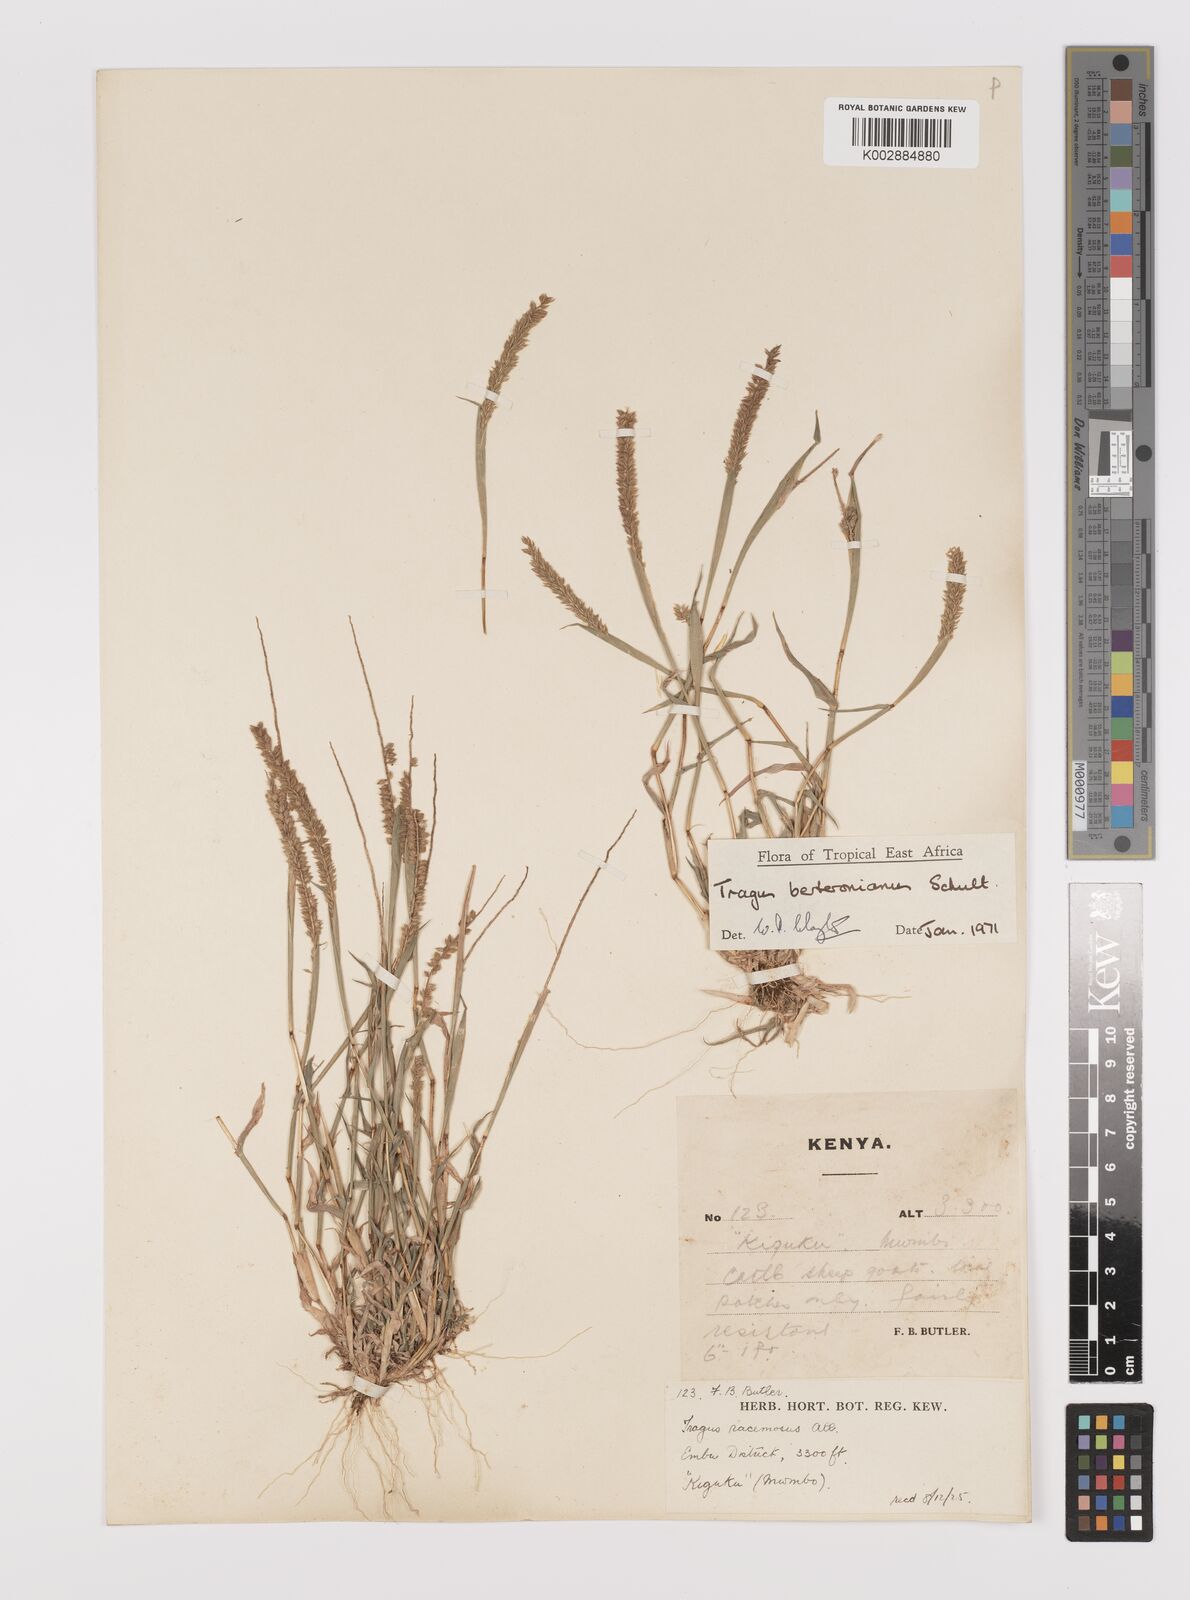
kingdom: Plantae
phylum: Tracheophyta
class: Liliopsida
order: Poales
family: Poaceae
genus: Tragus
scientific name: Tragus berteronianus
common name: African bur-grass
